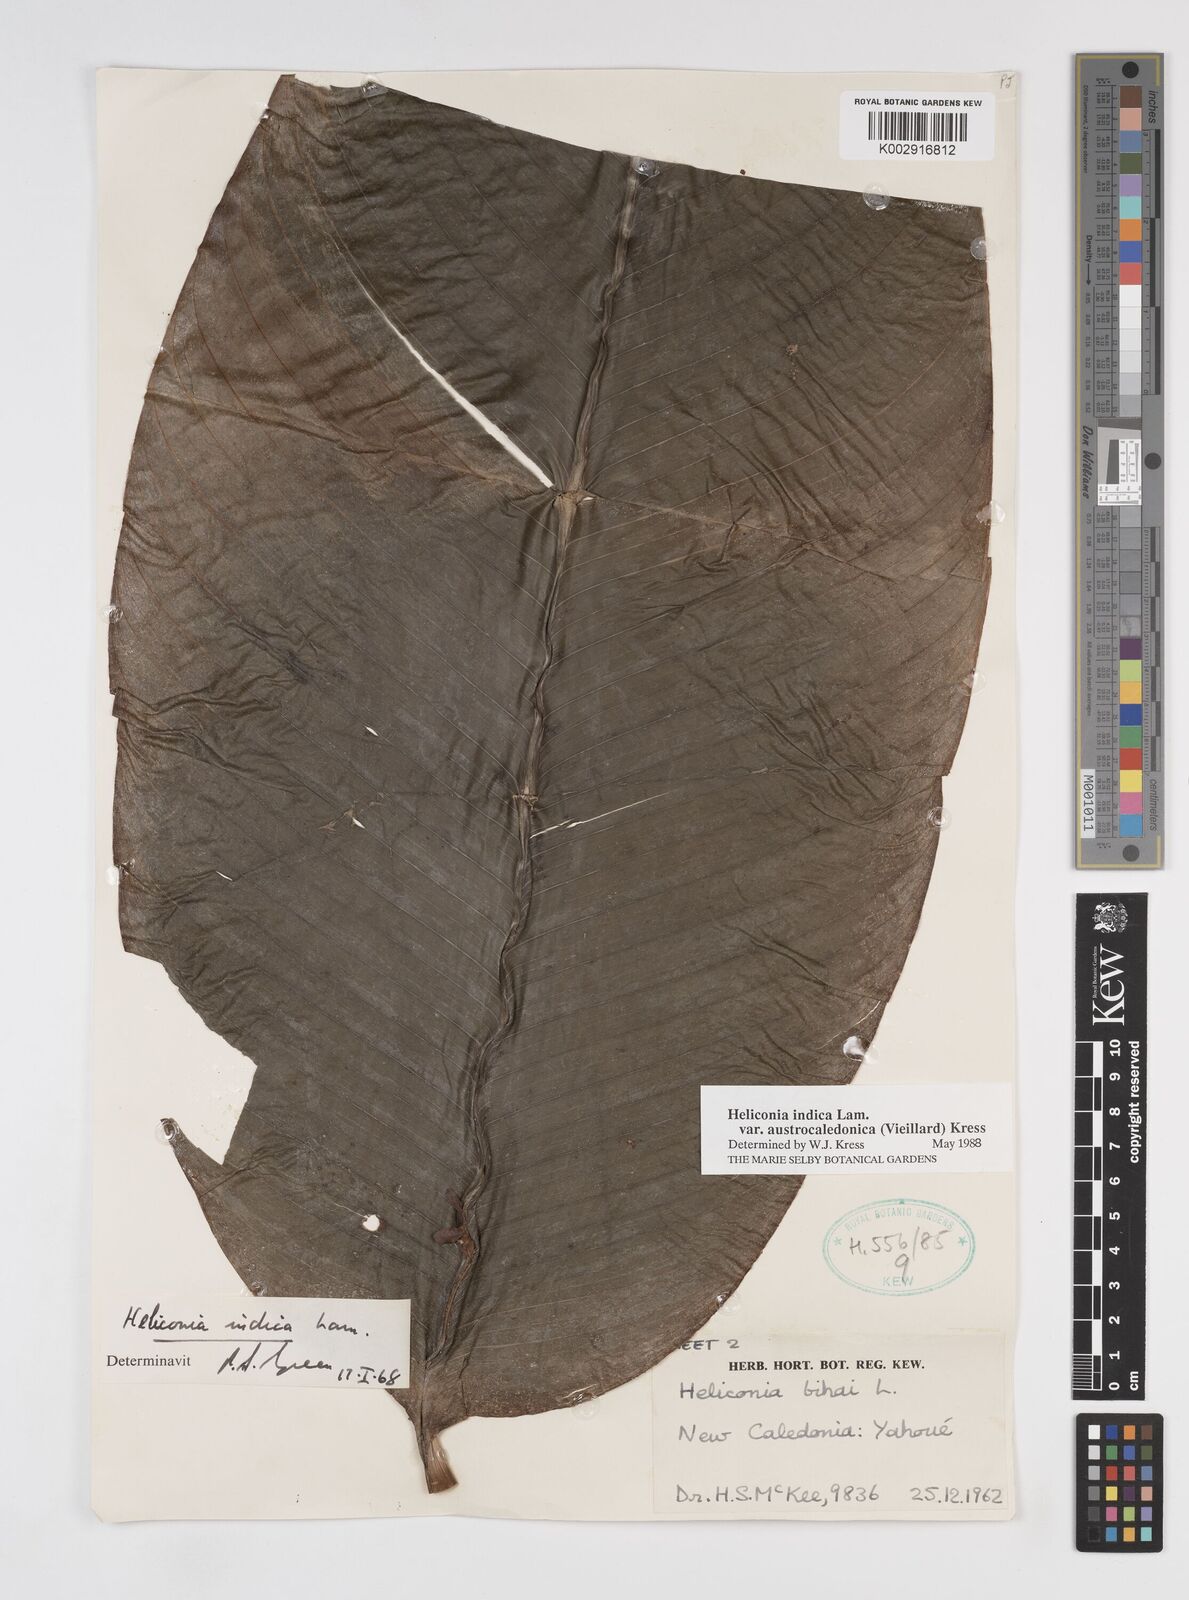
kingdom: Plantae
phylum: Tracheophyta
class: Liliopsida
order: Zingiberales
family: Heliconiaceae
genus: Heliconia
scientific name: Heliconia indica
